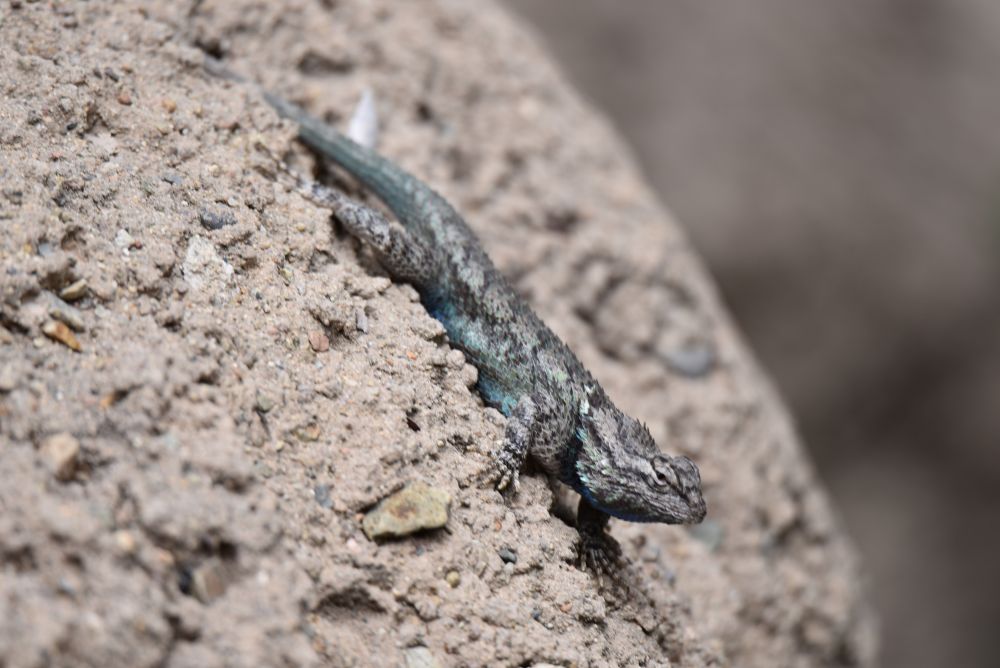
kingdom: Animalia
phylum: Chordata
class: Squamata
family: Phrynosomatidae
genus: Sceloporus
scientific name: Sceloporus magister
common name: Desert spiny lizard
